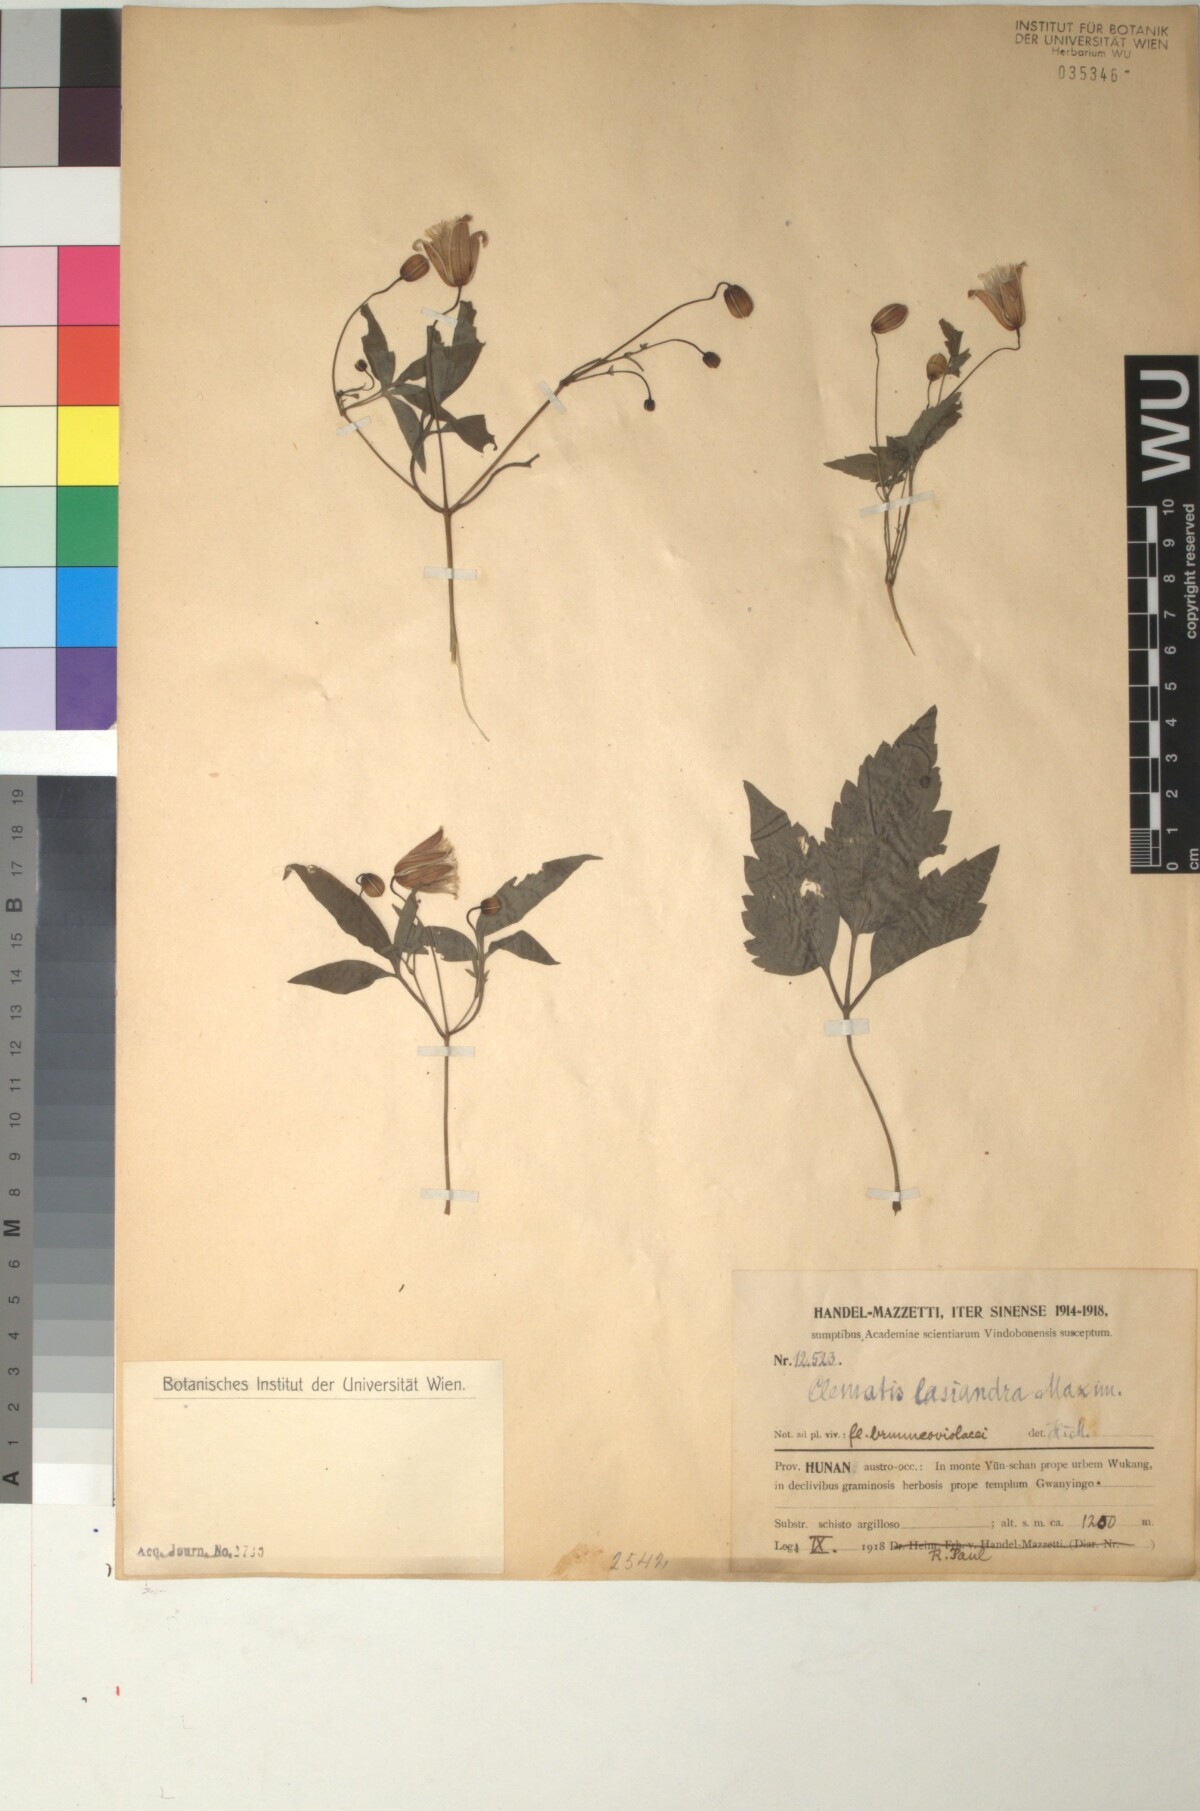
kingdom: Plantae
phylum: Tracheophyta
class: Magnoliopsida
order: Ranunculales
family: Ranunculaceae
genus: Clematis
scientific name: Clematis lasiandra
